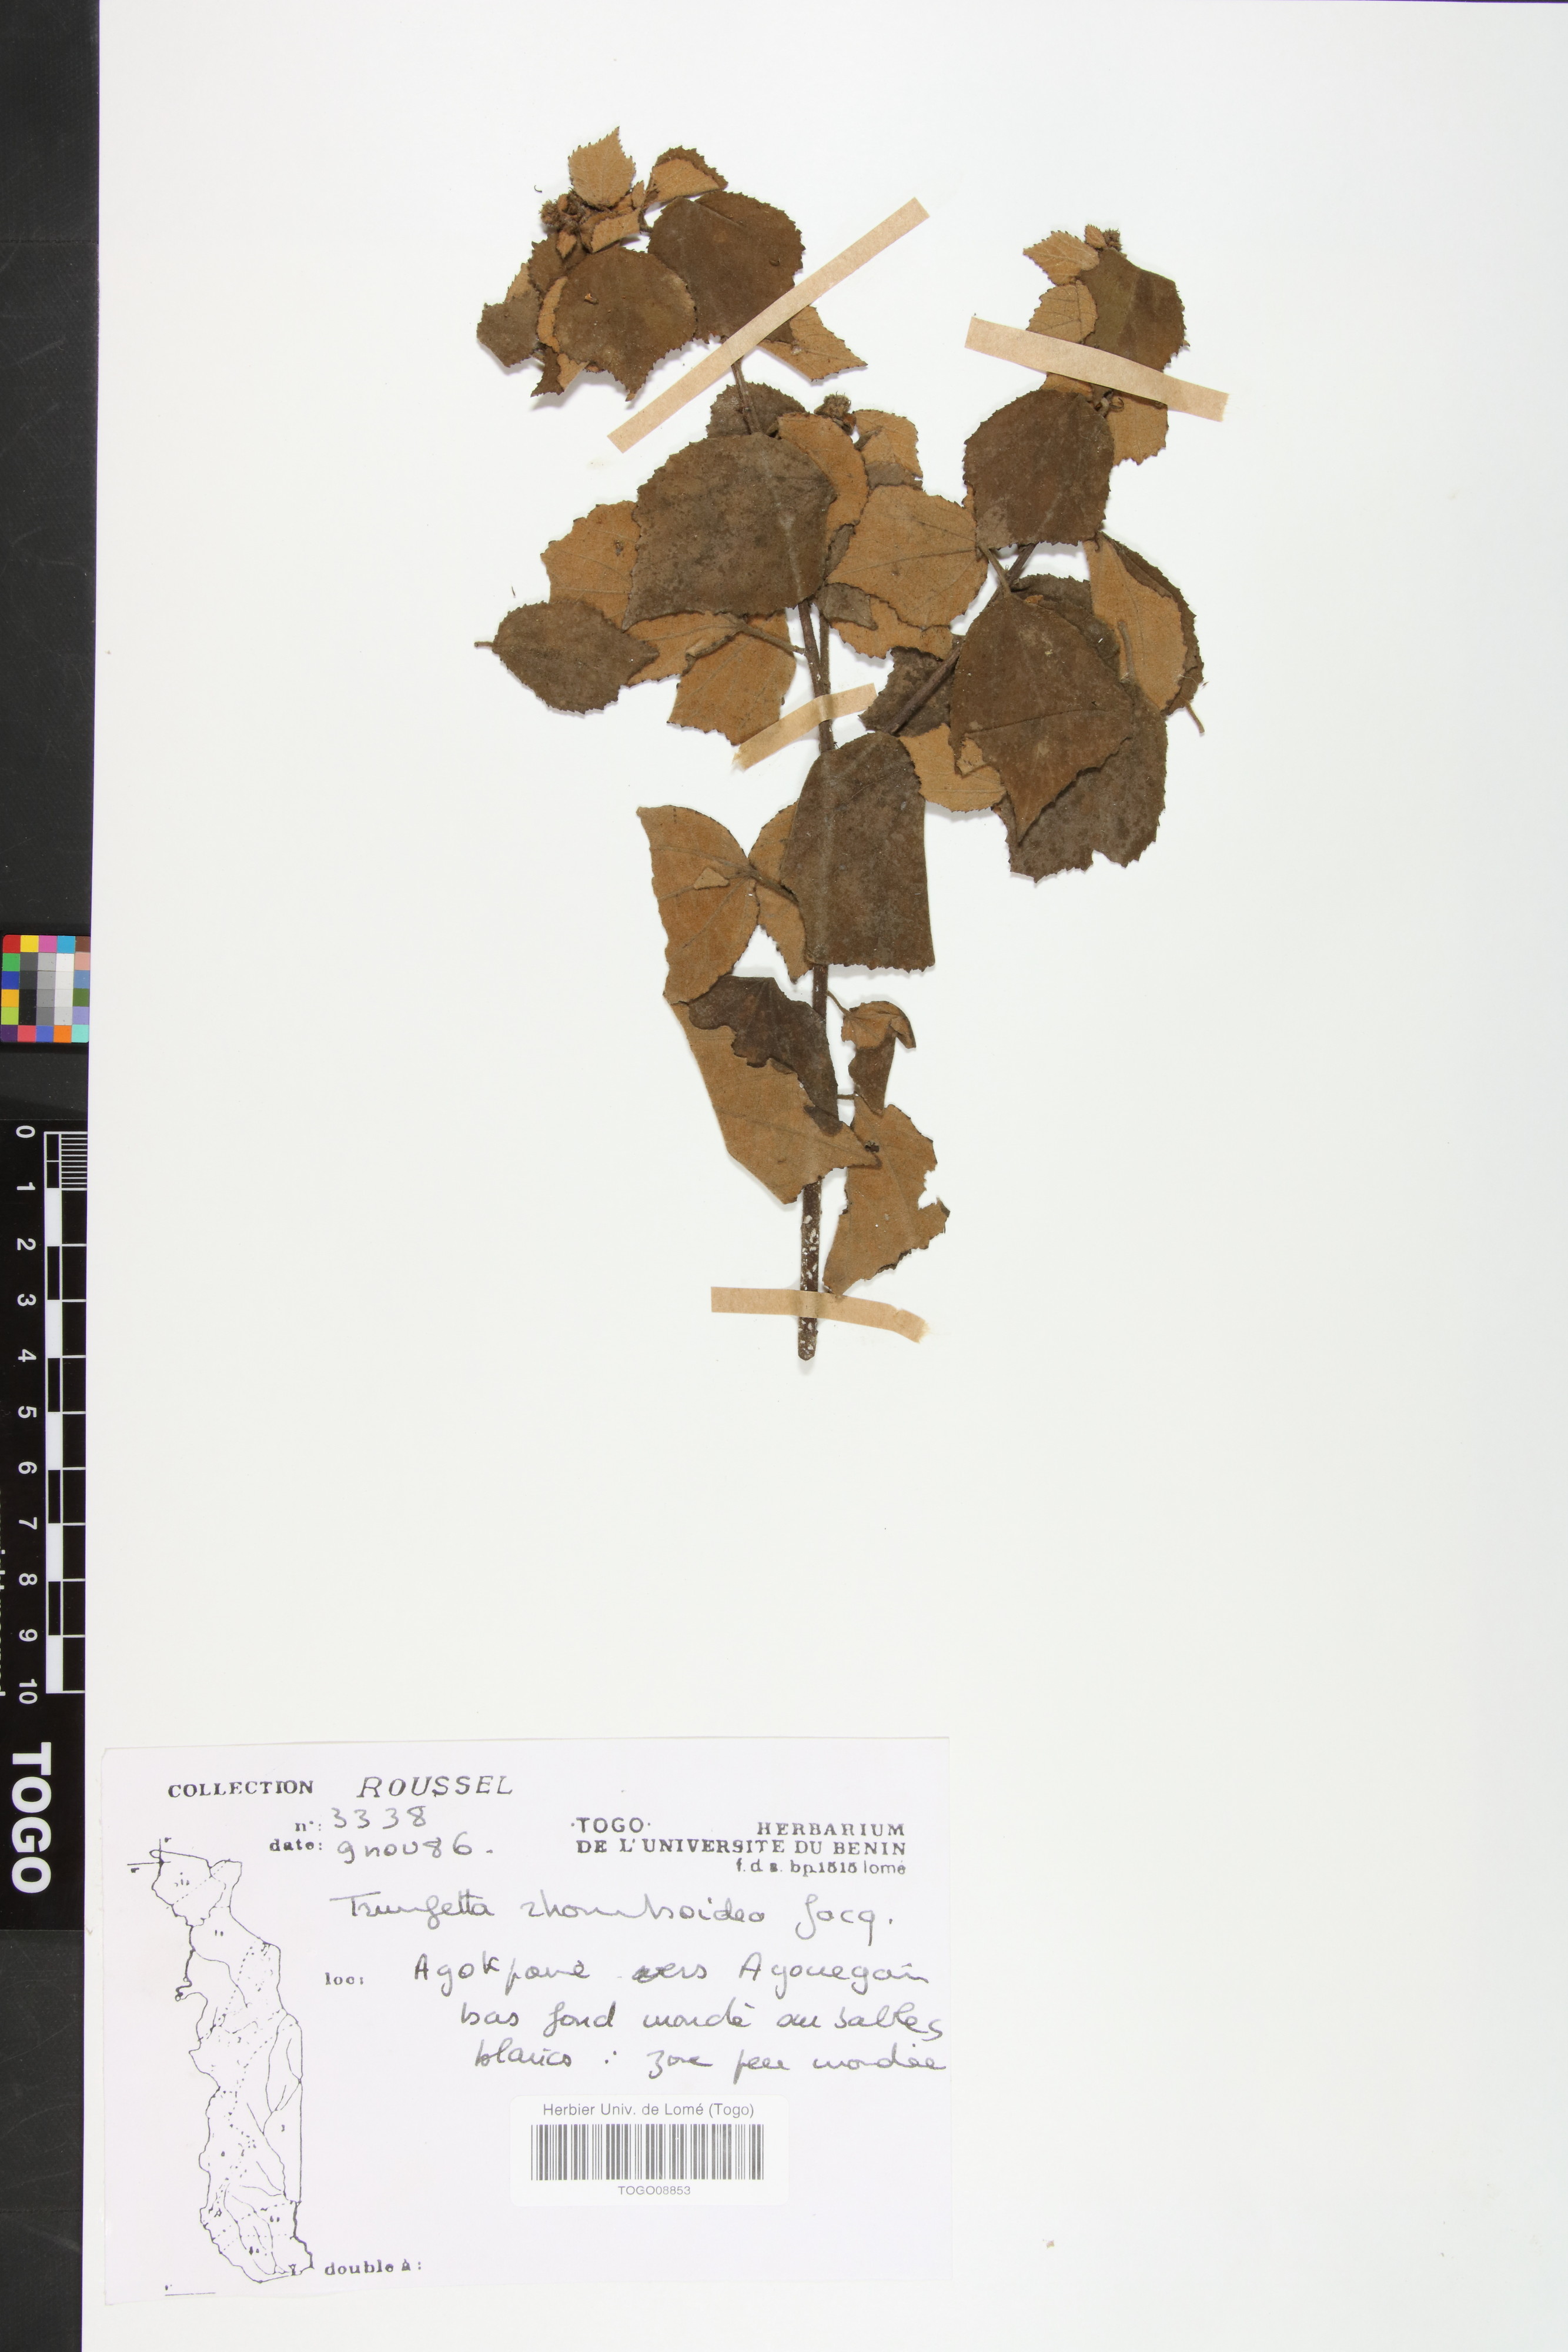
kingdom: Plantae
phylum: Tracheophyta
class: Magnoliopsida
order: Malvales
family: Malvaceae
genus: Triumfetta
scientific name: Triumfetta rhomboidea
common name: Diamond burbark
